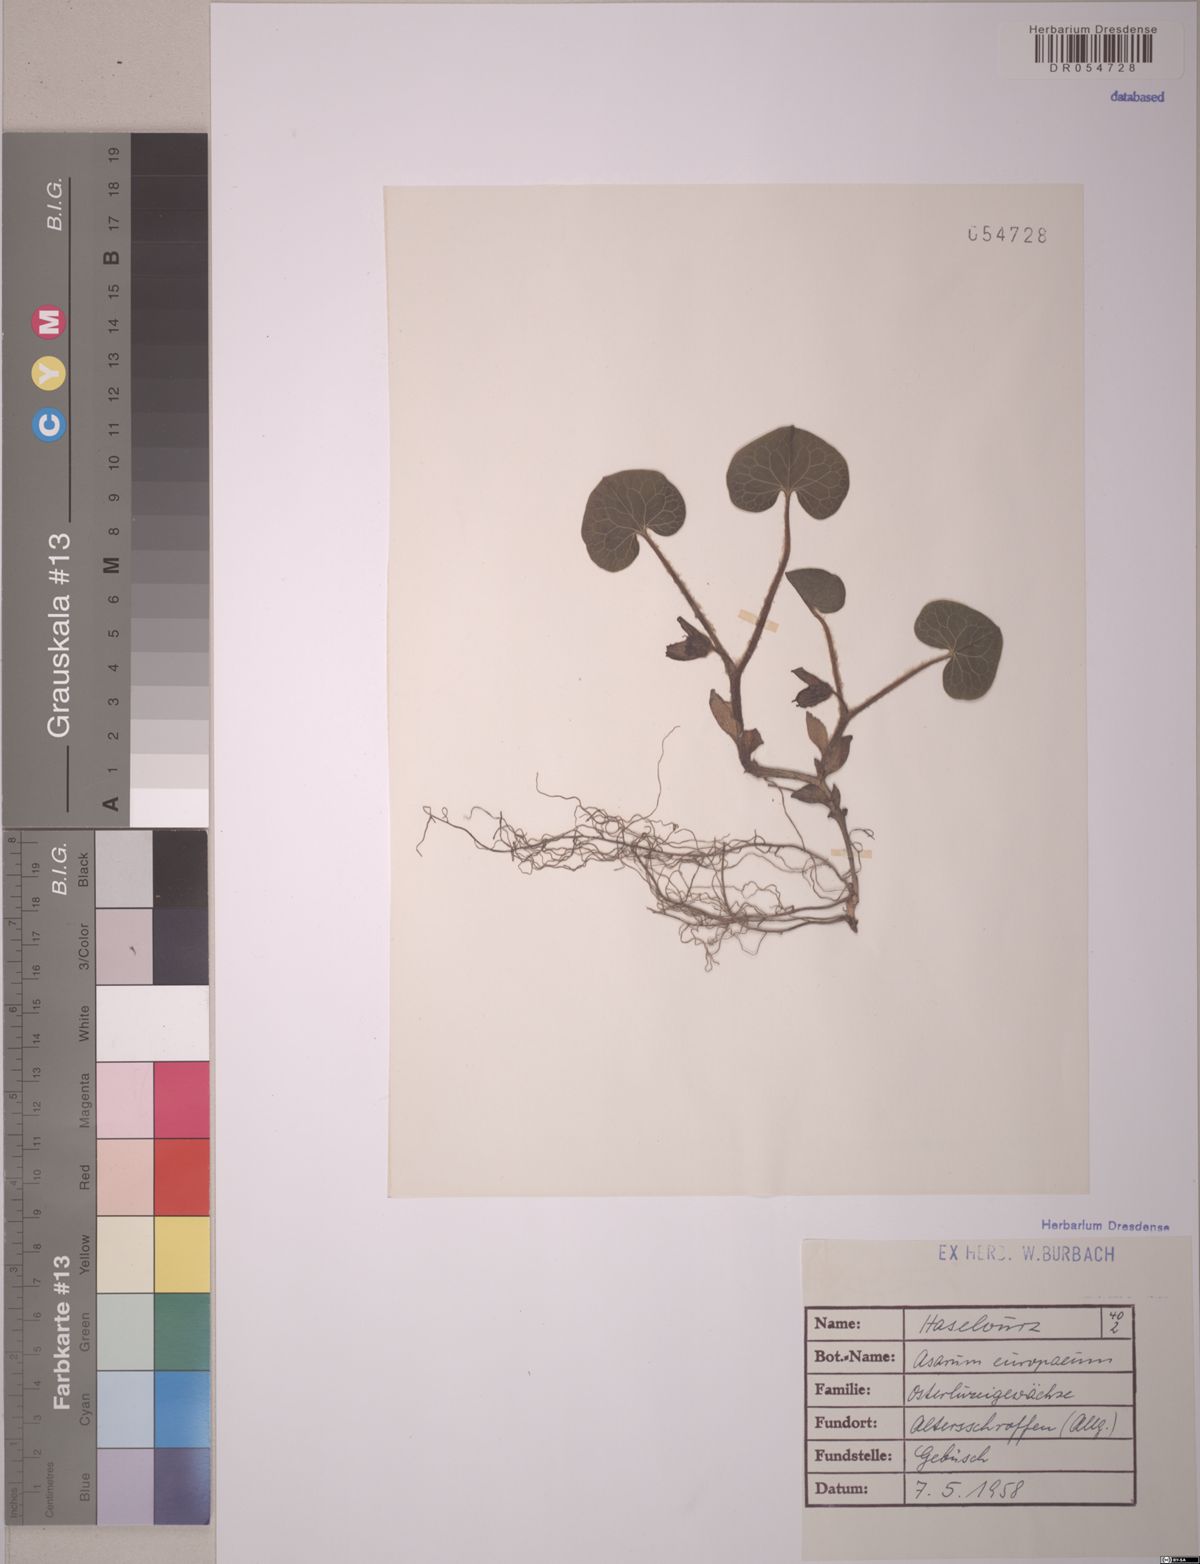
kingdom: Plantae
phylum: Tracheophyta
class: Magnoliopsida
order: Piperales
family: Aristolochiaceae
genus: Asarum
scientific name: Asarum europaeum
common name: Asarabacca
